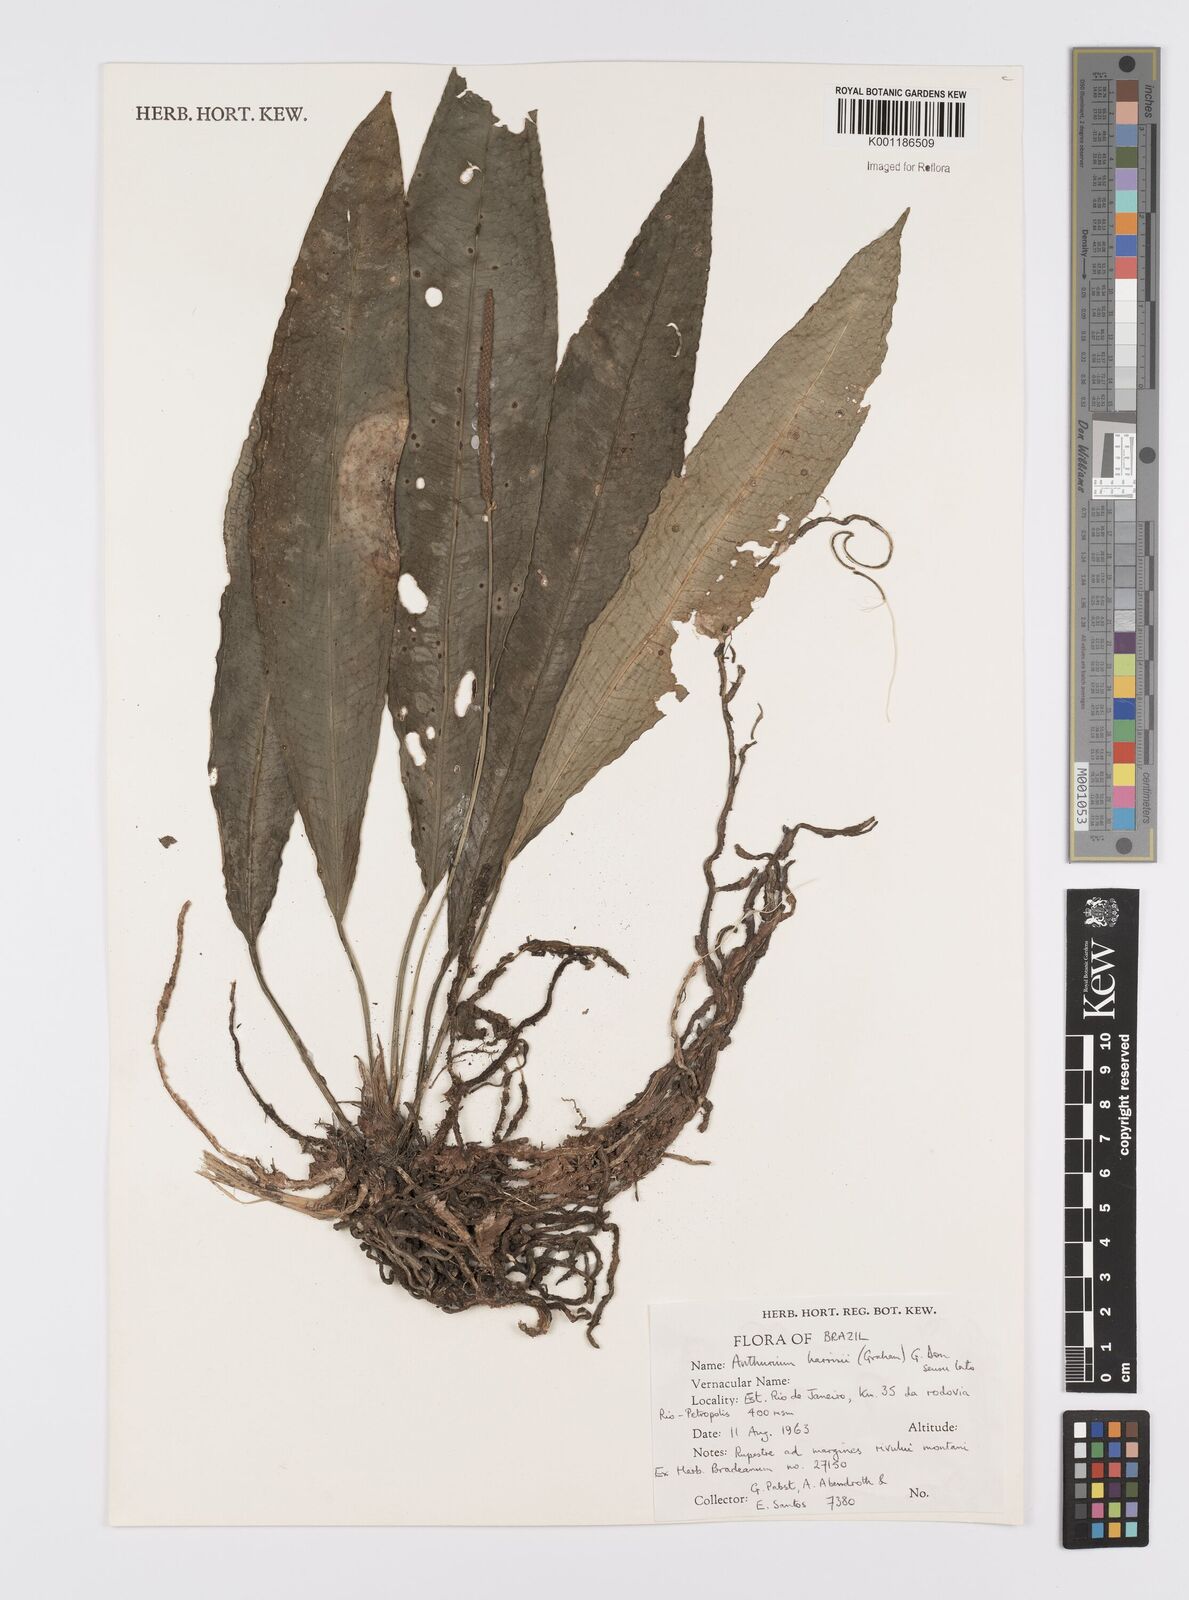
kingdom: Plantae
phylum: Tracheophyta
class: Liliopsida
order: Alismatales
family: Araceae
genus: Anthurium
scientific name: Anthurium harrisii
